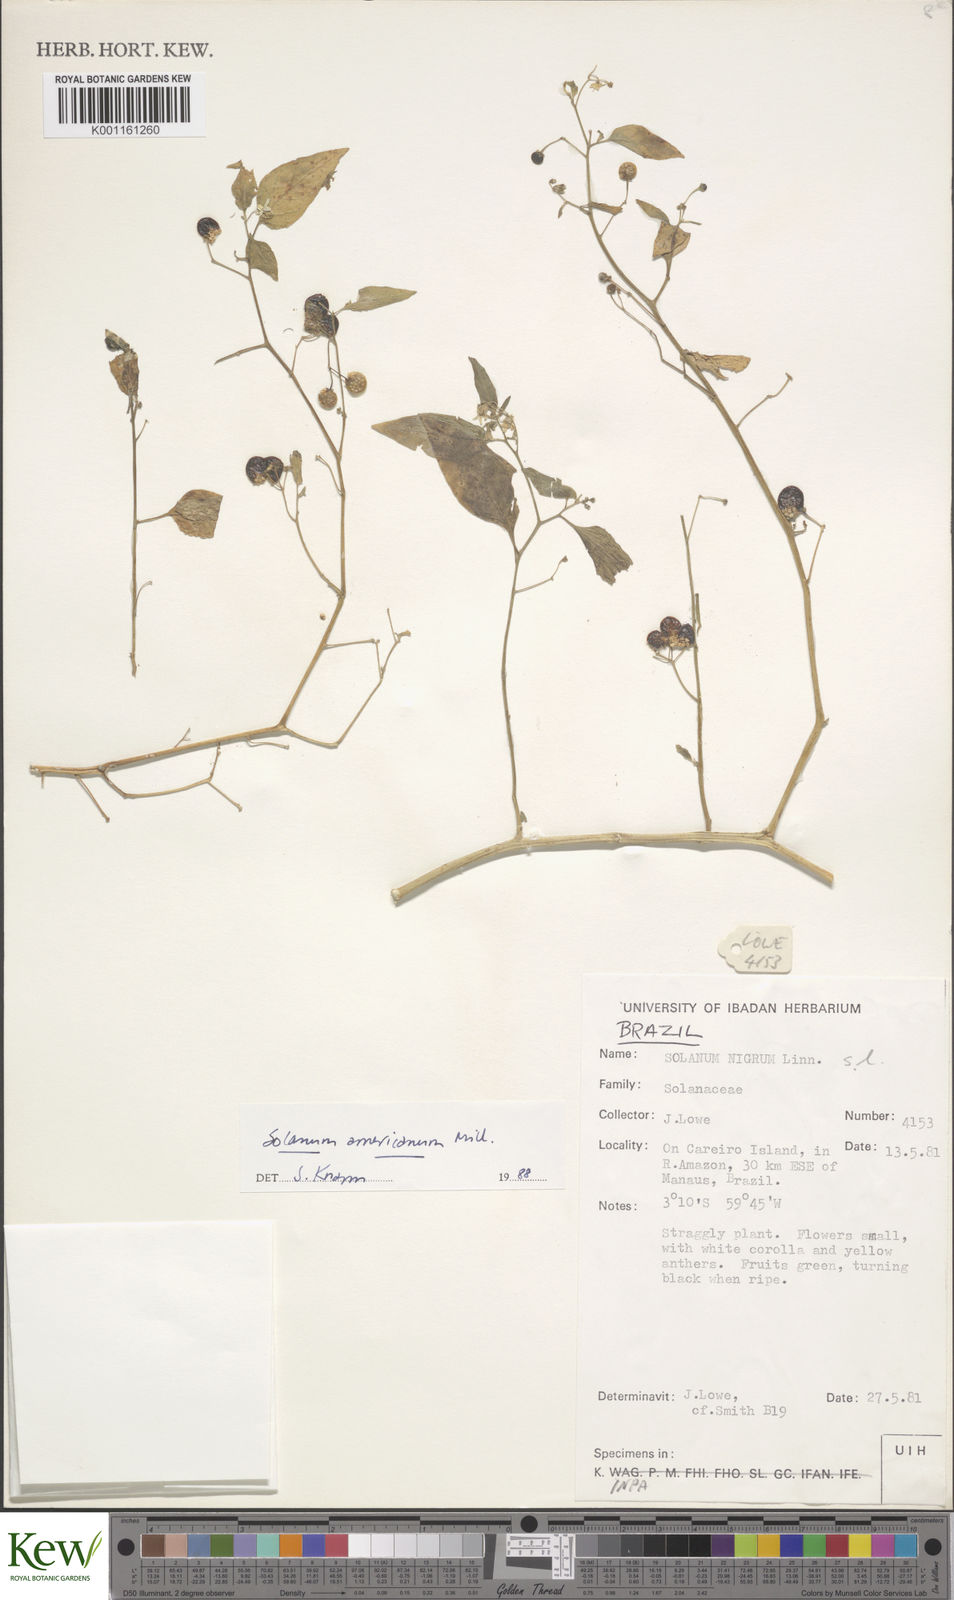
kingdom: Plantae
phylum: Tracheophyta
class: Magnoliopsida
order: Solanales
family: Solanaceae
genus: Solanum
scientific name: Solanum americanum
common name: American black nightshade
